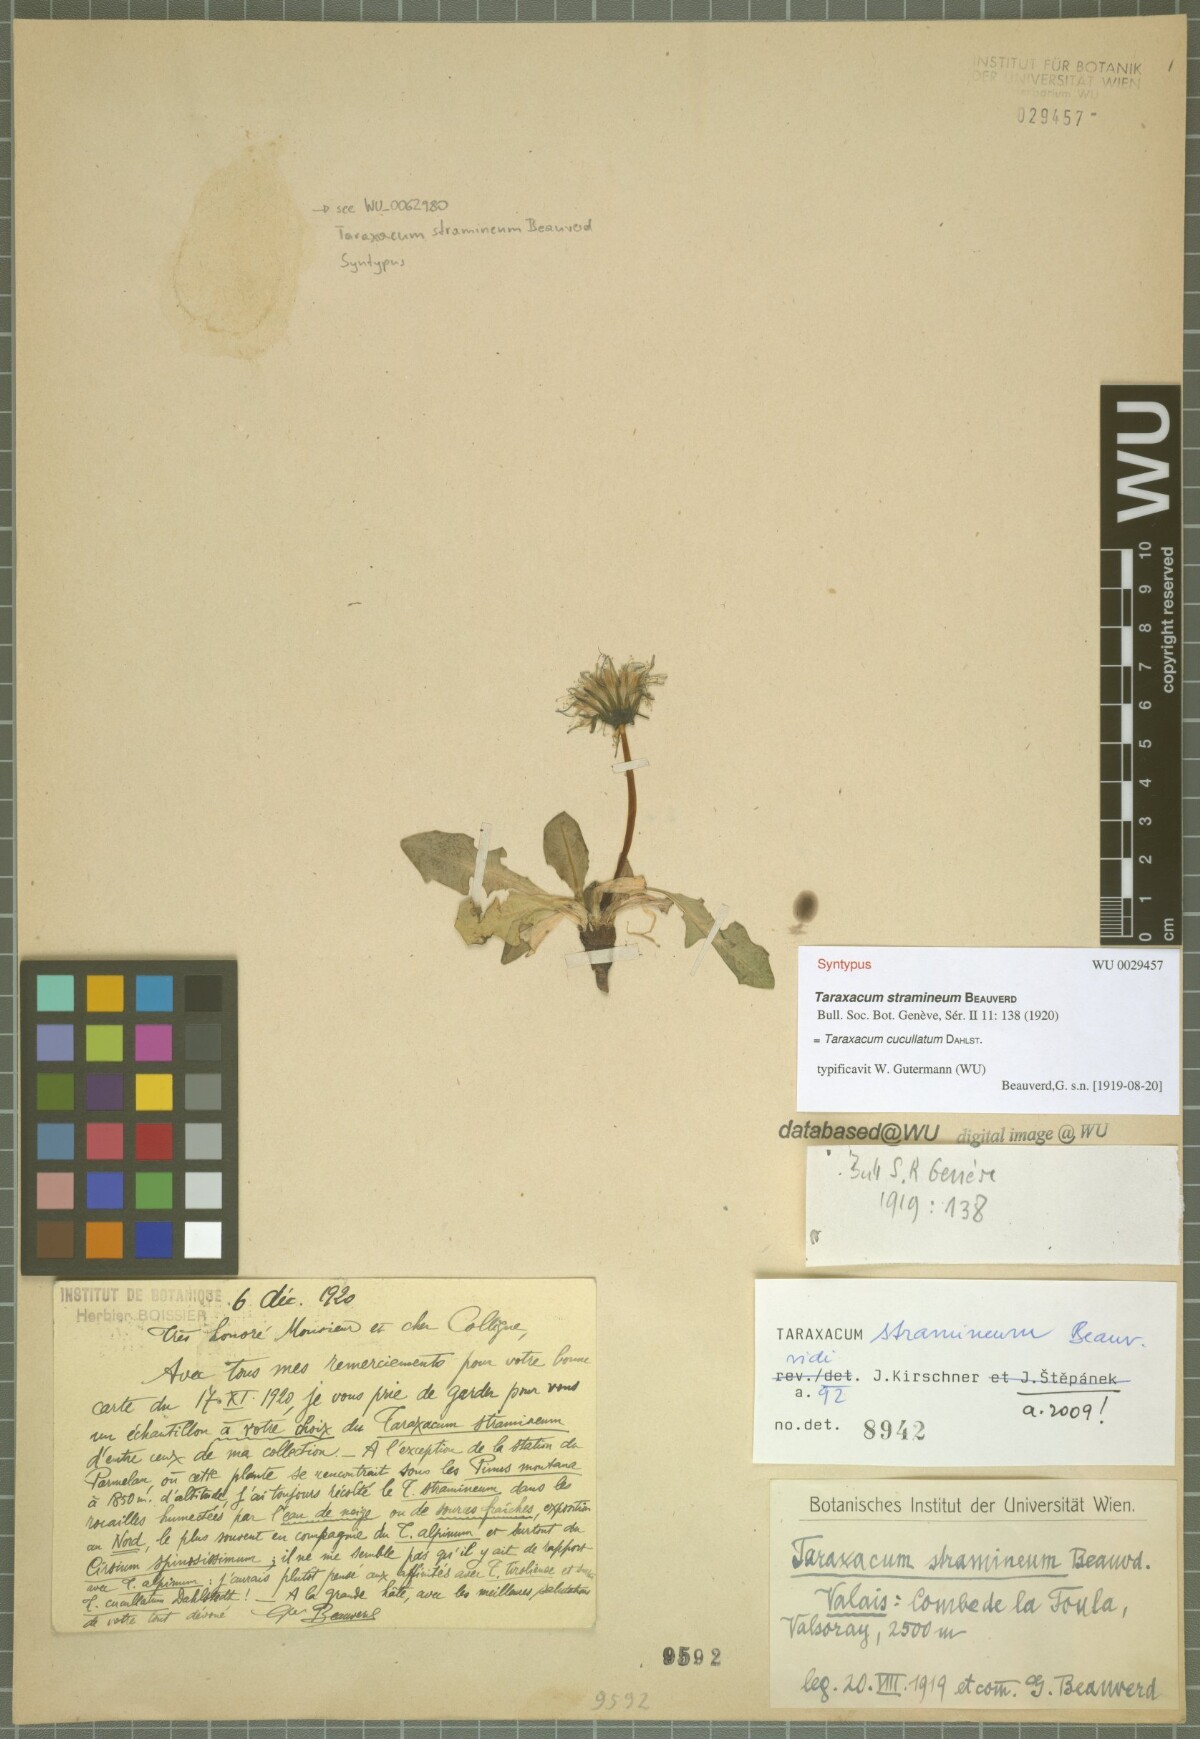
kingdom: Plantae
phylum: Tracheophyta
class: Magnoliopsida
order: Asterales
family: Asteraceae
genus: Taraxacum
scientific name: Taraxacum cucullatum
